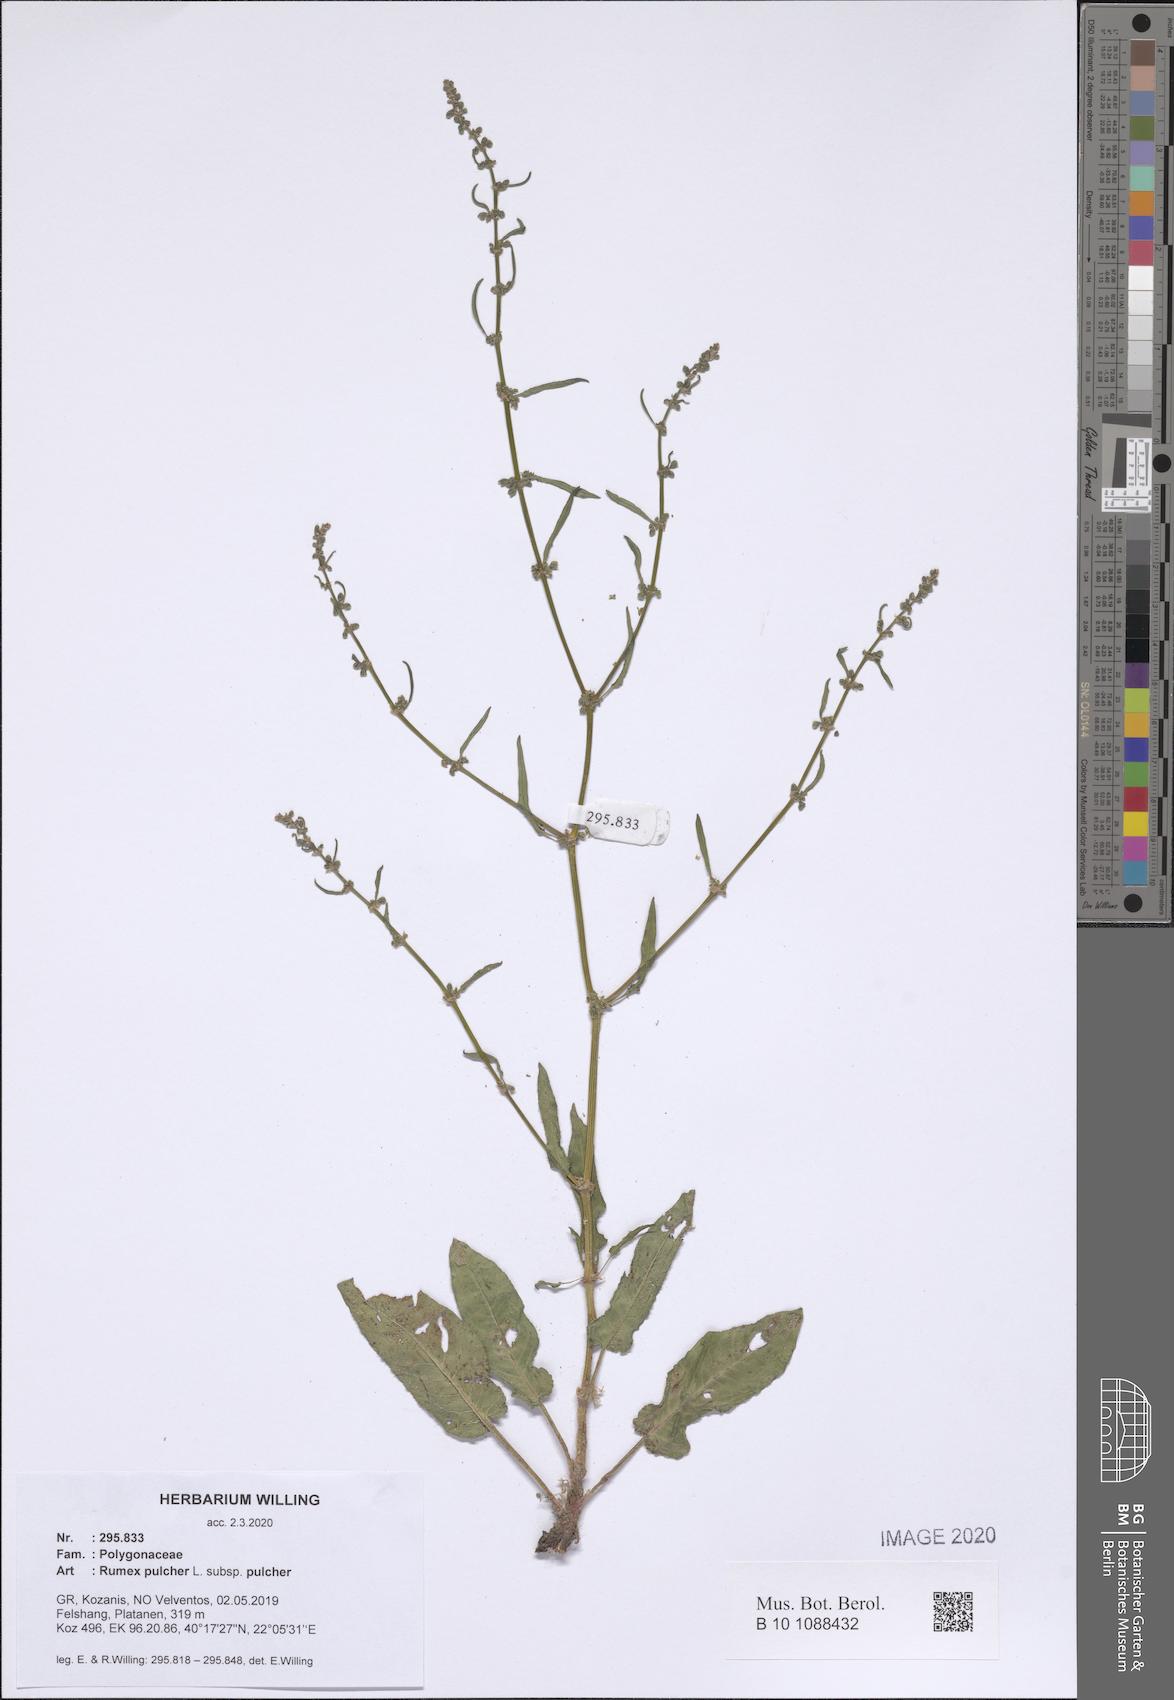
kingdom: Plantae
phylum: Tracheophyta
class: Magnoliopsida
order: Caryophyllales
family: Polygonaceae
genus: Rumex
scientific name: Rumex pulcher
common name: Fiddle dock
